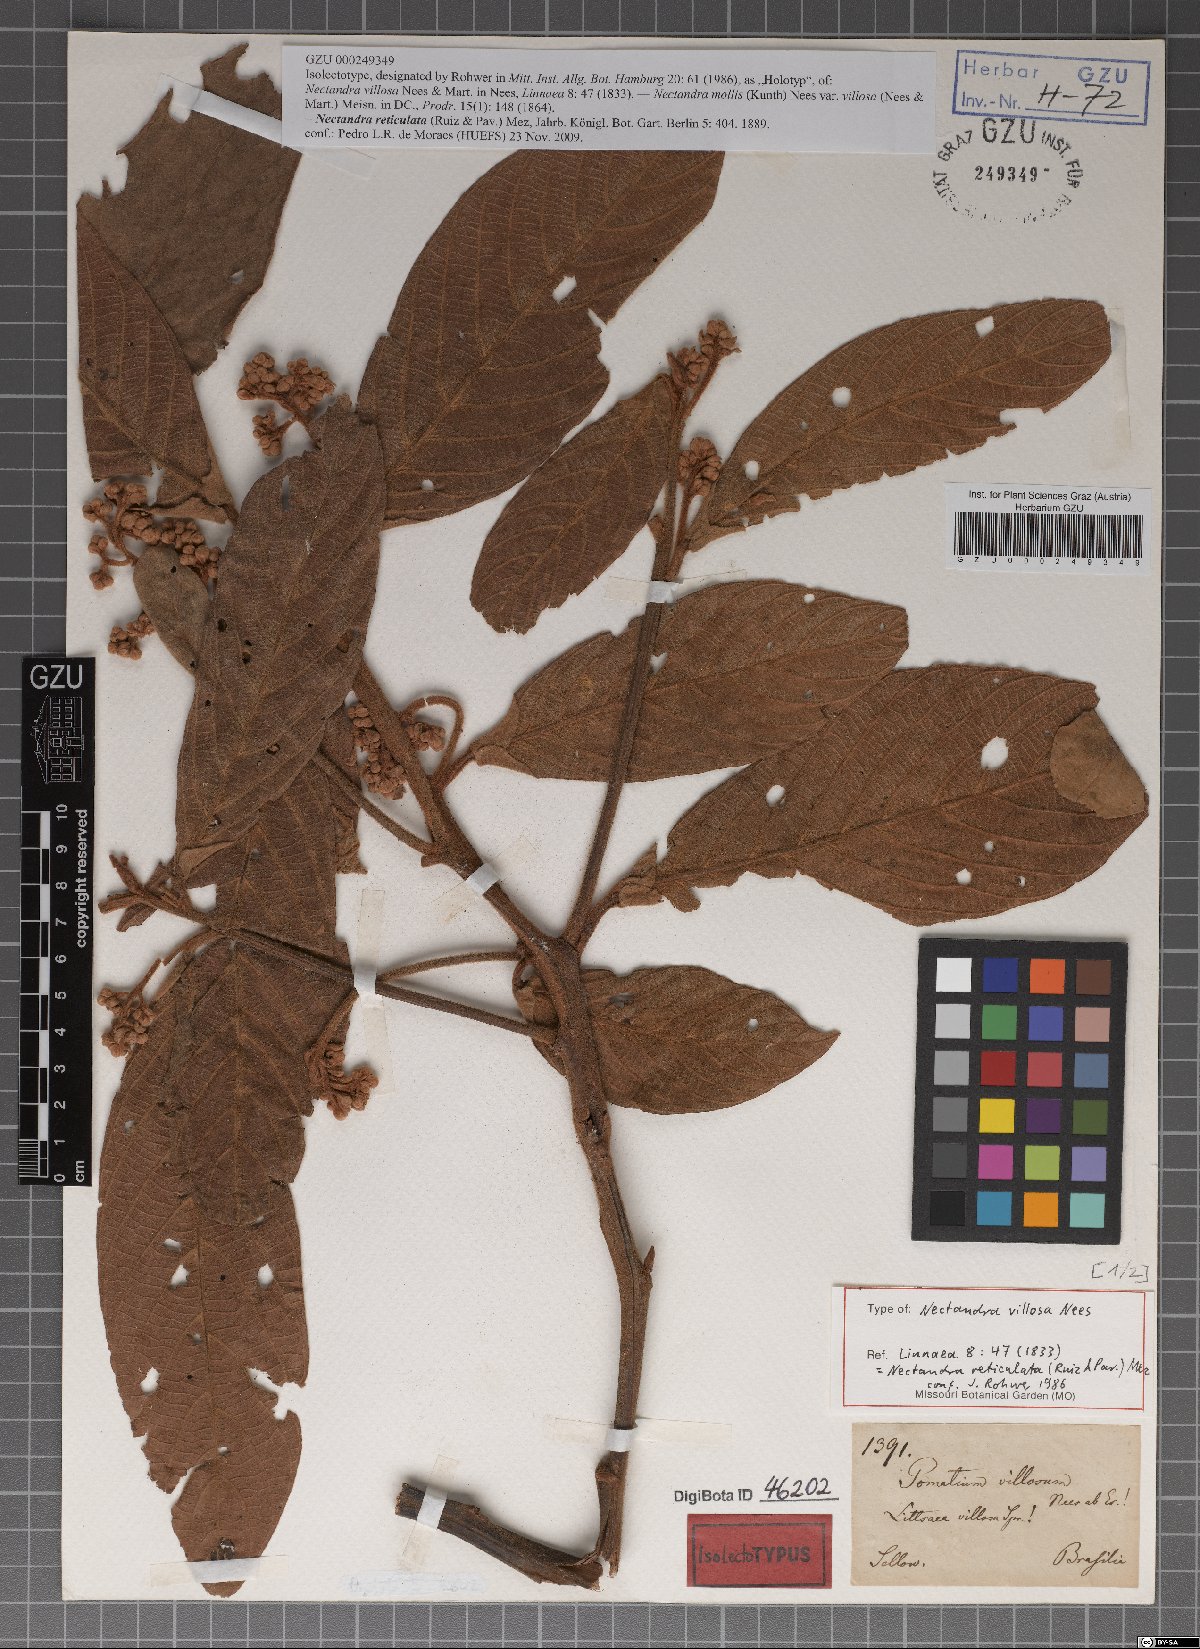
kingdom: Plantae
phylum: Tracheophyta
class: Magnoliopsida
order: Laurales
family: Lauraceae
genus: Nectandra
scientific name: Nectandra villosa
